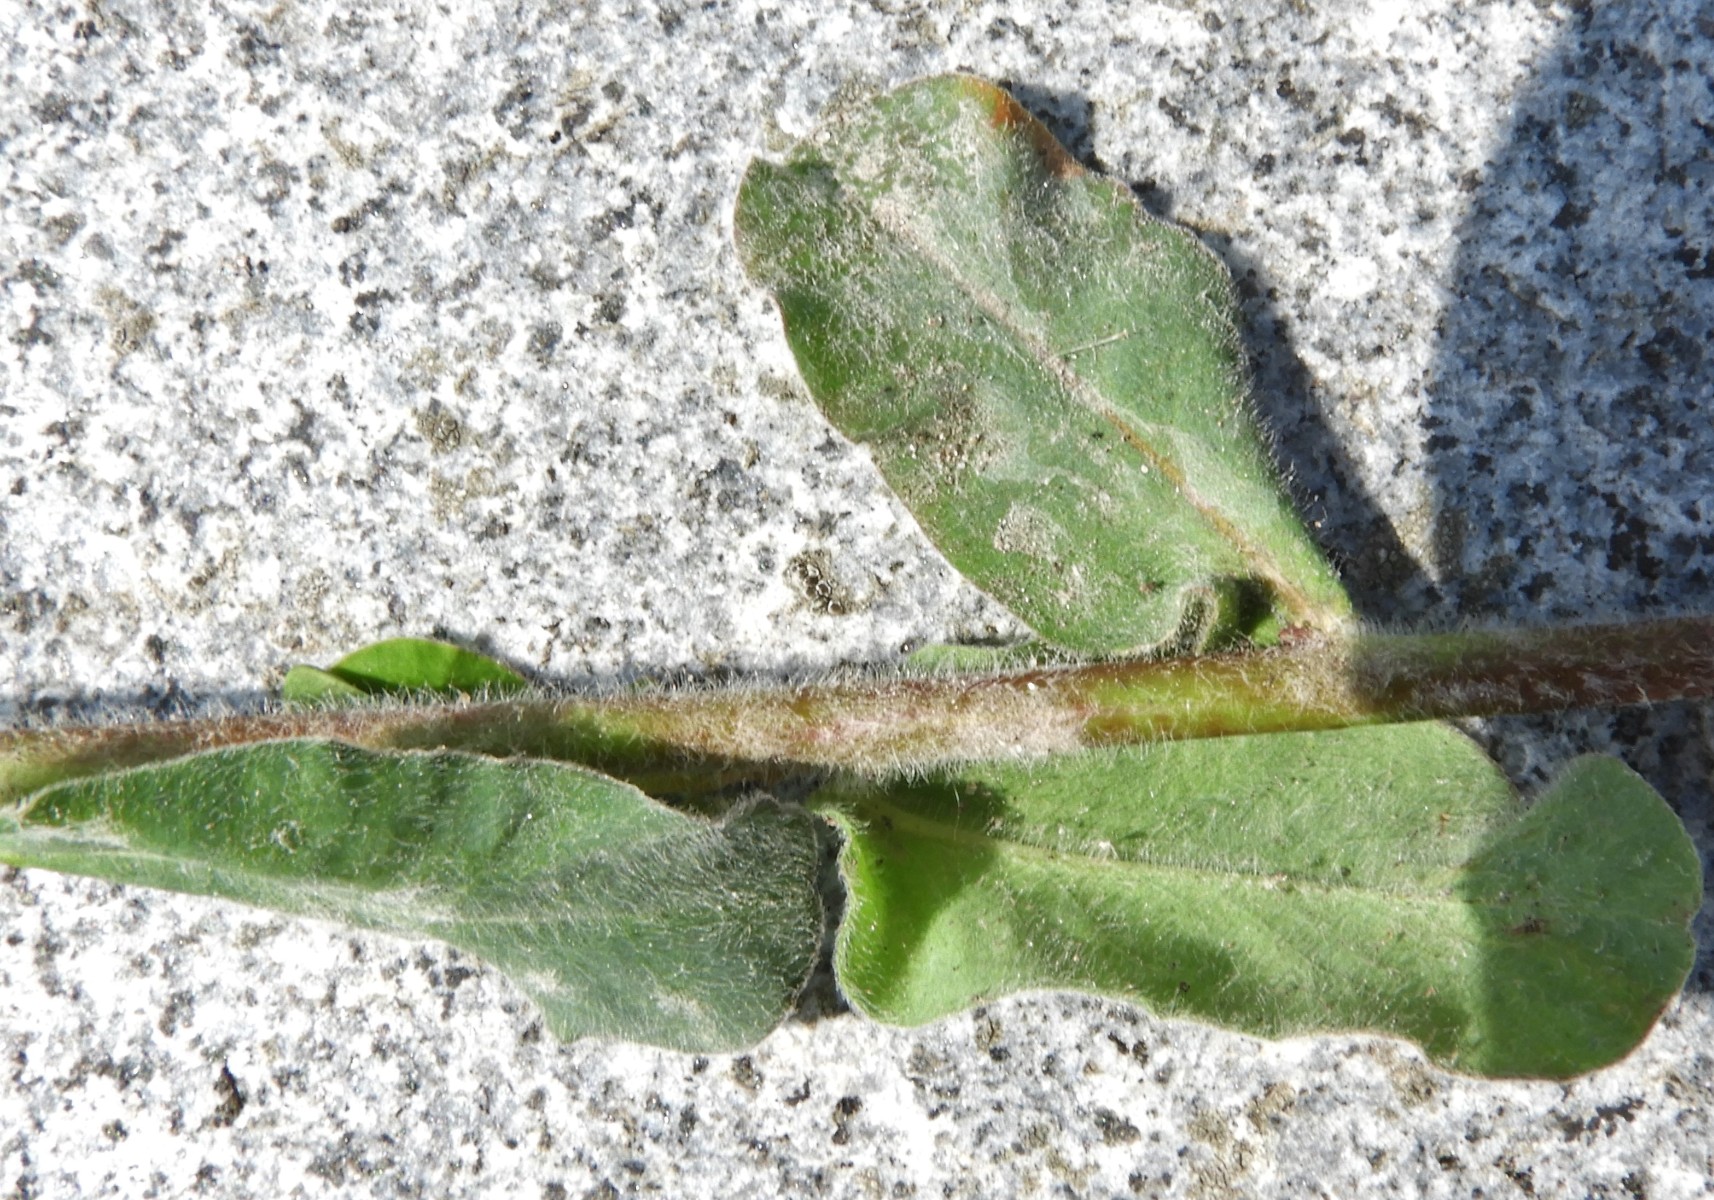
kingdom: Fungi
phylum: Ascomycota
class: Leotiomycetes
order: Helotiales
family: Erysiphaceae
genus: Podosphaera
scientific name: Podosphaera euphorbiae
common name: Eurasian poinsettia powdery mildew
